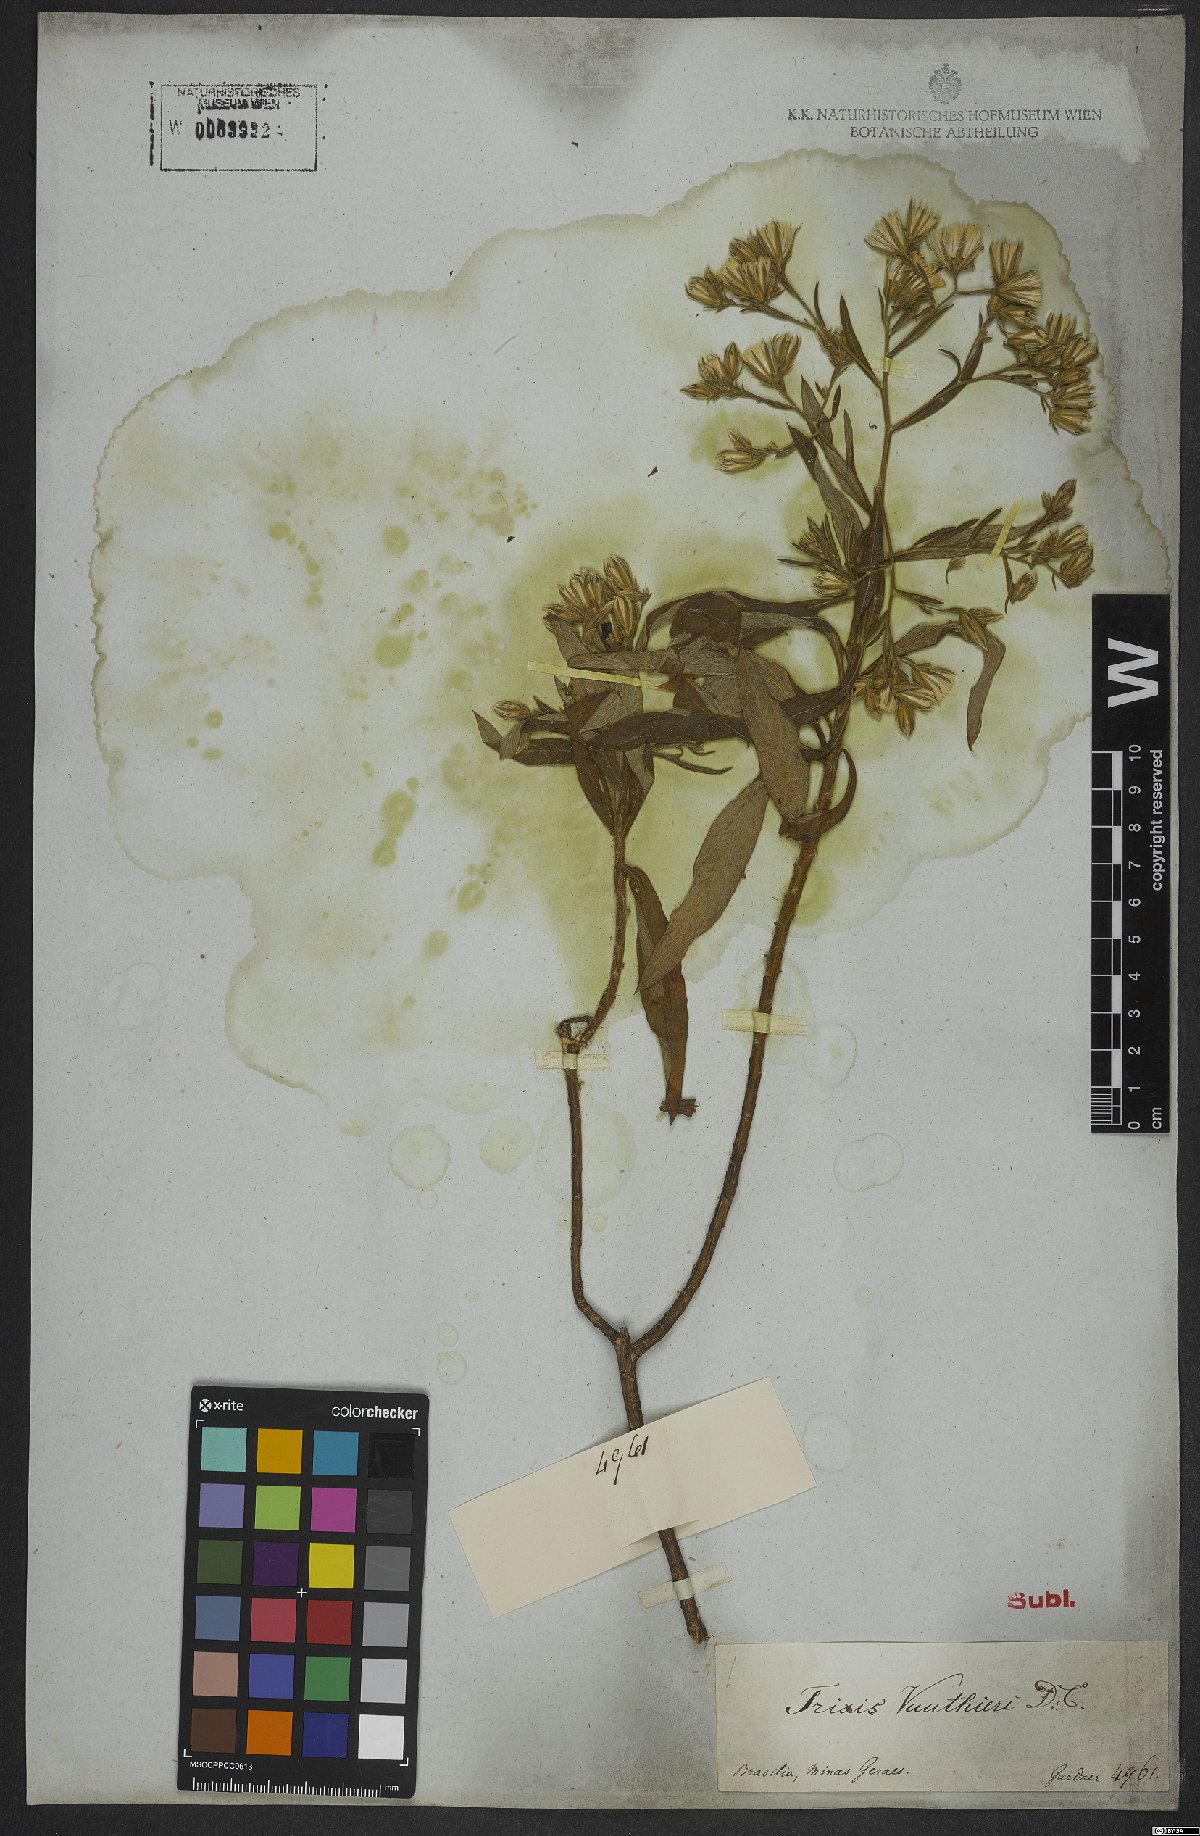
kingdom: Plantae
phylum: Tracheophyta
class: Magnoliopsida
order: Asterales
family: Asteraceae
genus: Trixis
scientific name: Trixis vauthieri
